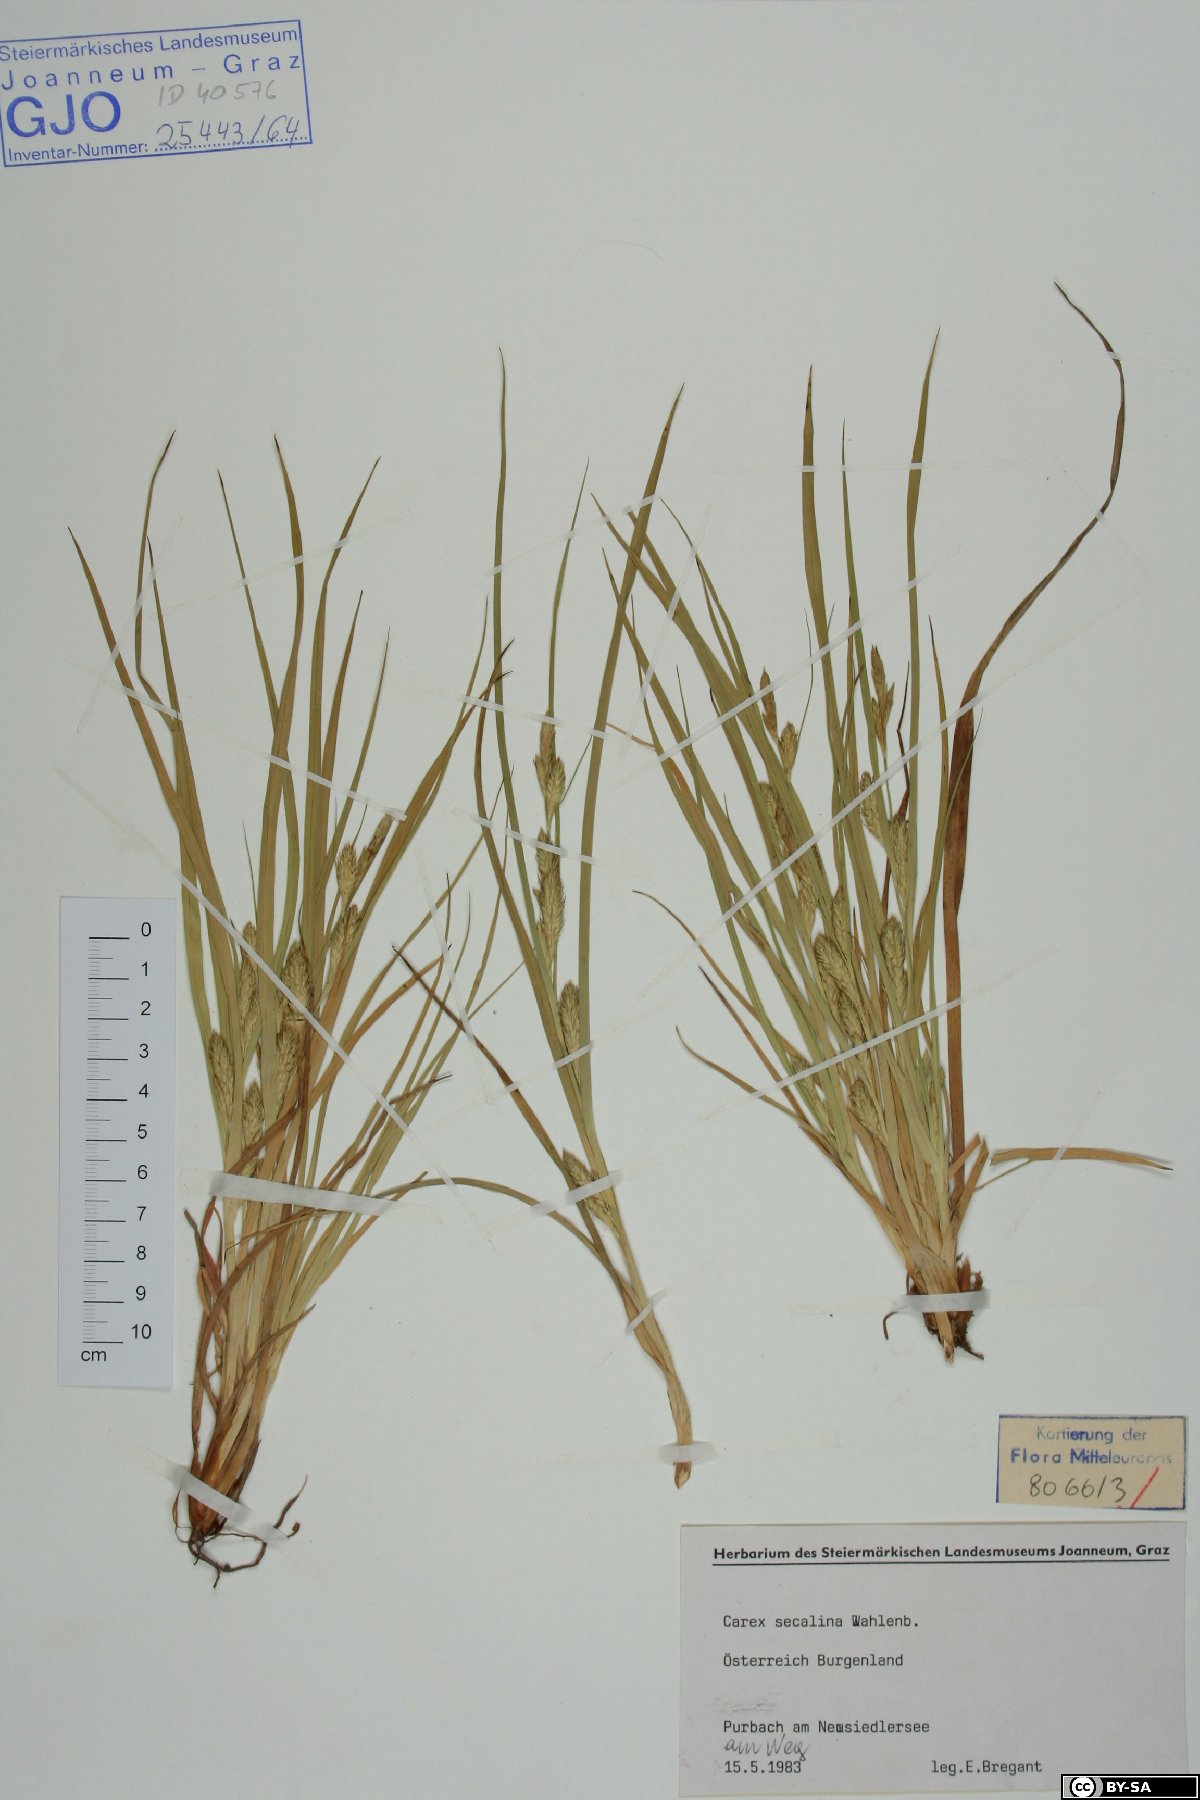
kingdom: Plantae
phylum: Tracheophyta
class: Liliopsida
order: Poales
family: Cyperaceae
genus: Carex
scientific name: Carex secalina
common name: Rye sedge
